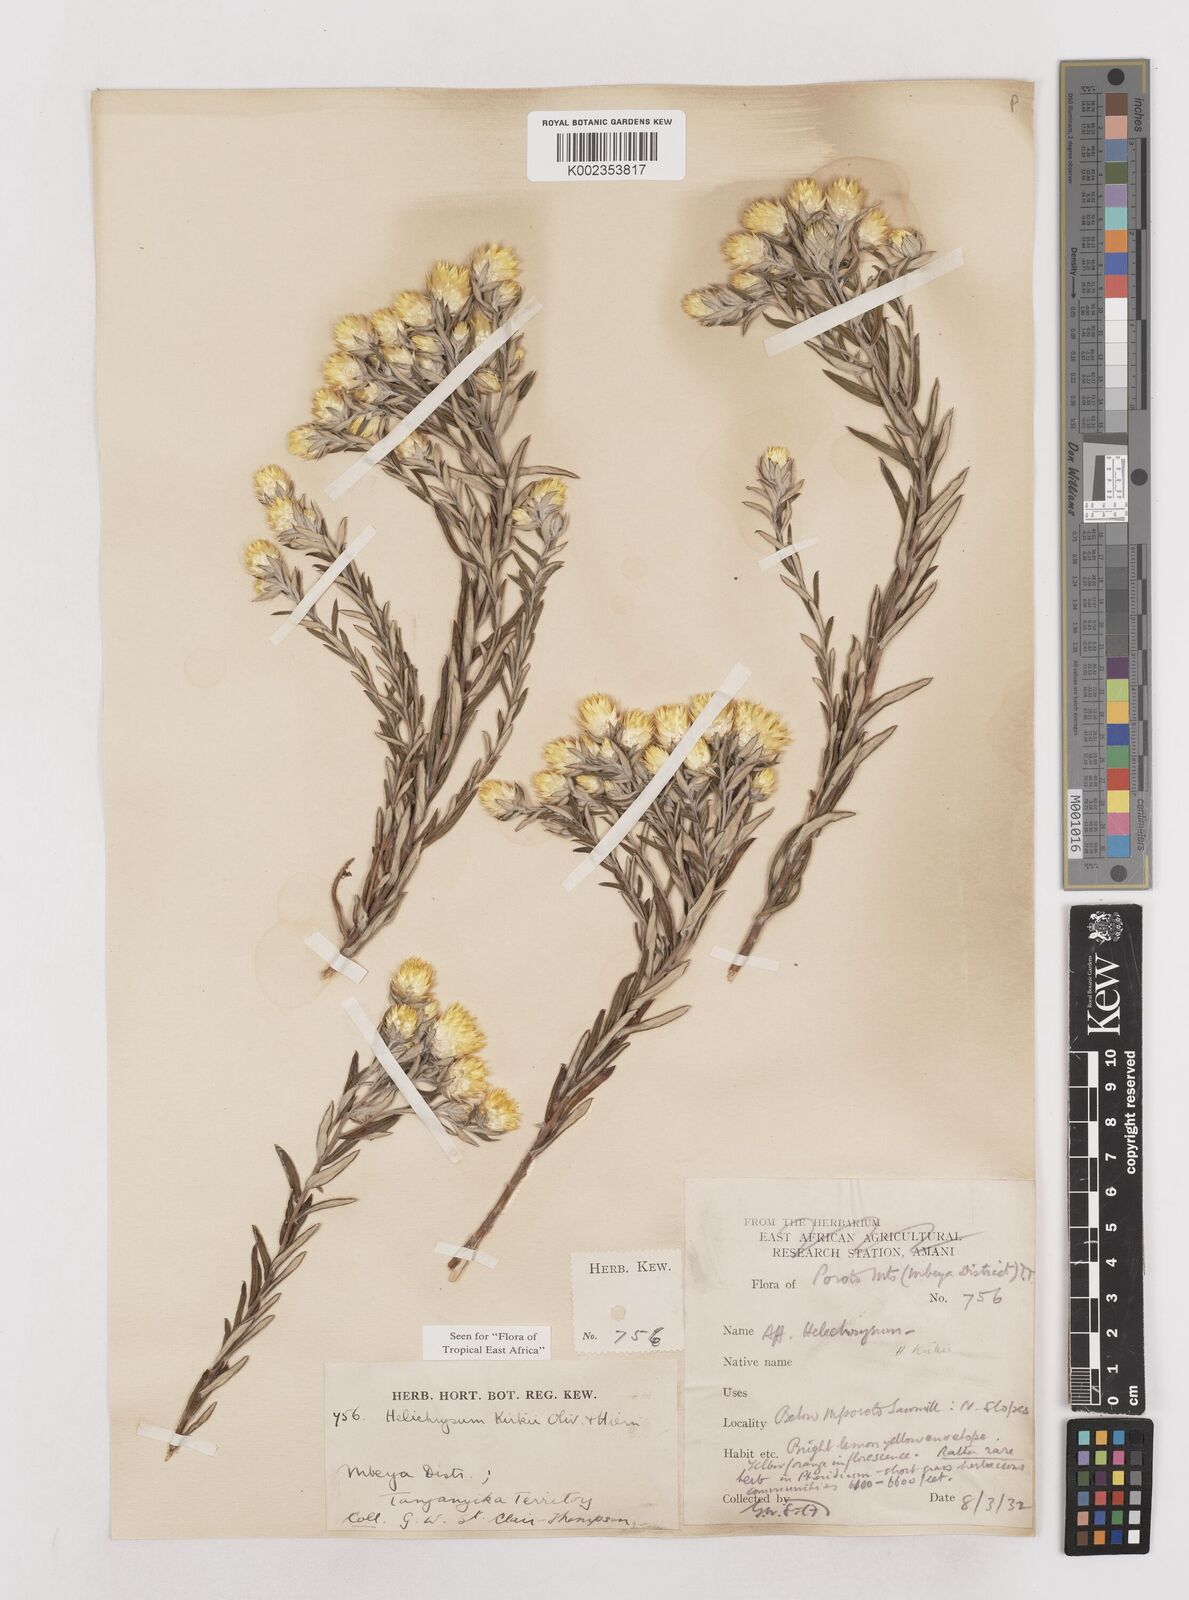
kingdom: Plantae
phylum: Tracheophyta
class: Magnoliopsida
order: Asterales
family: Asteraceae
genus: Helichrysum
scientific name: Helichrysum kirkii
